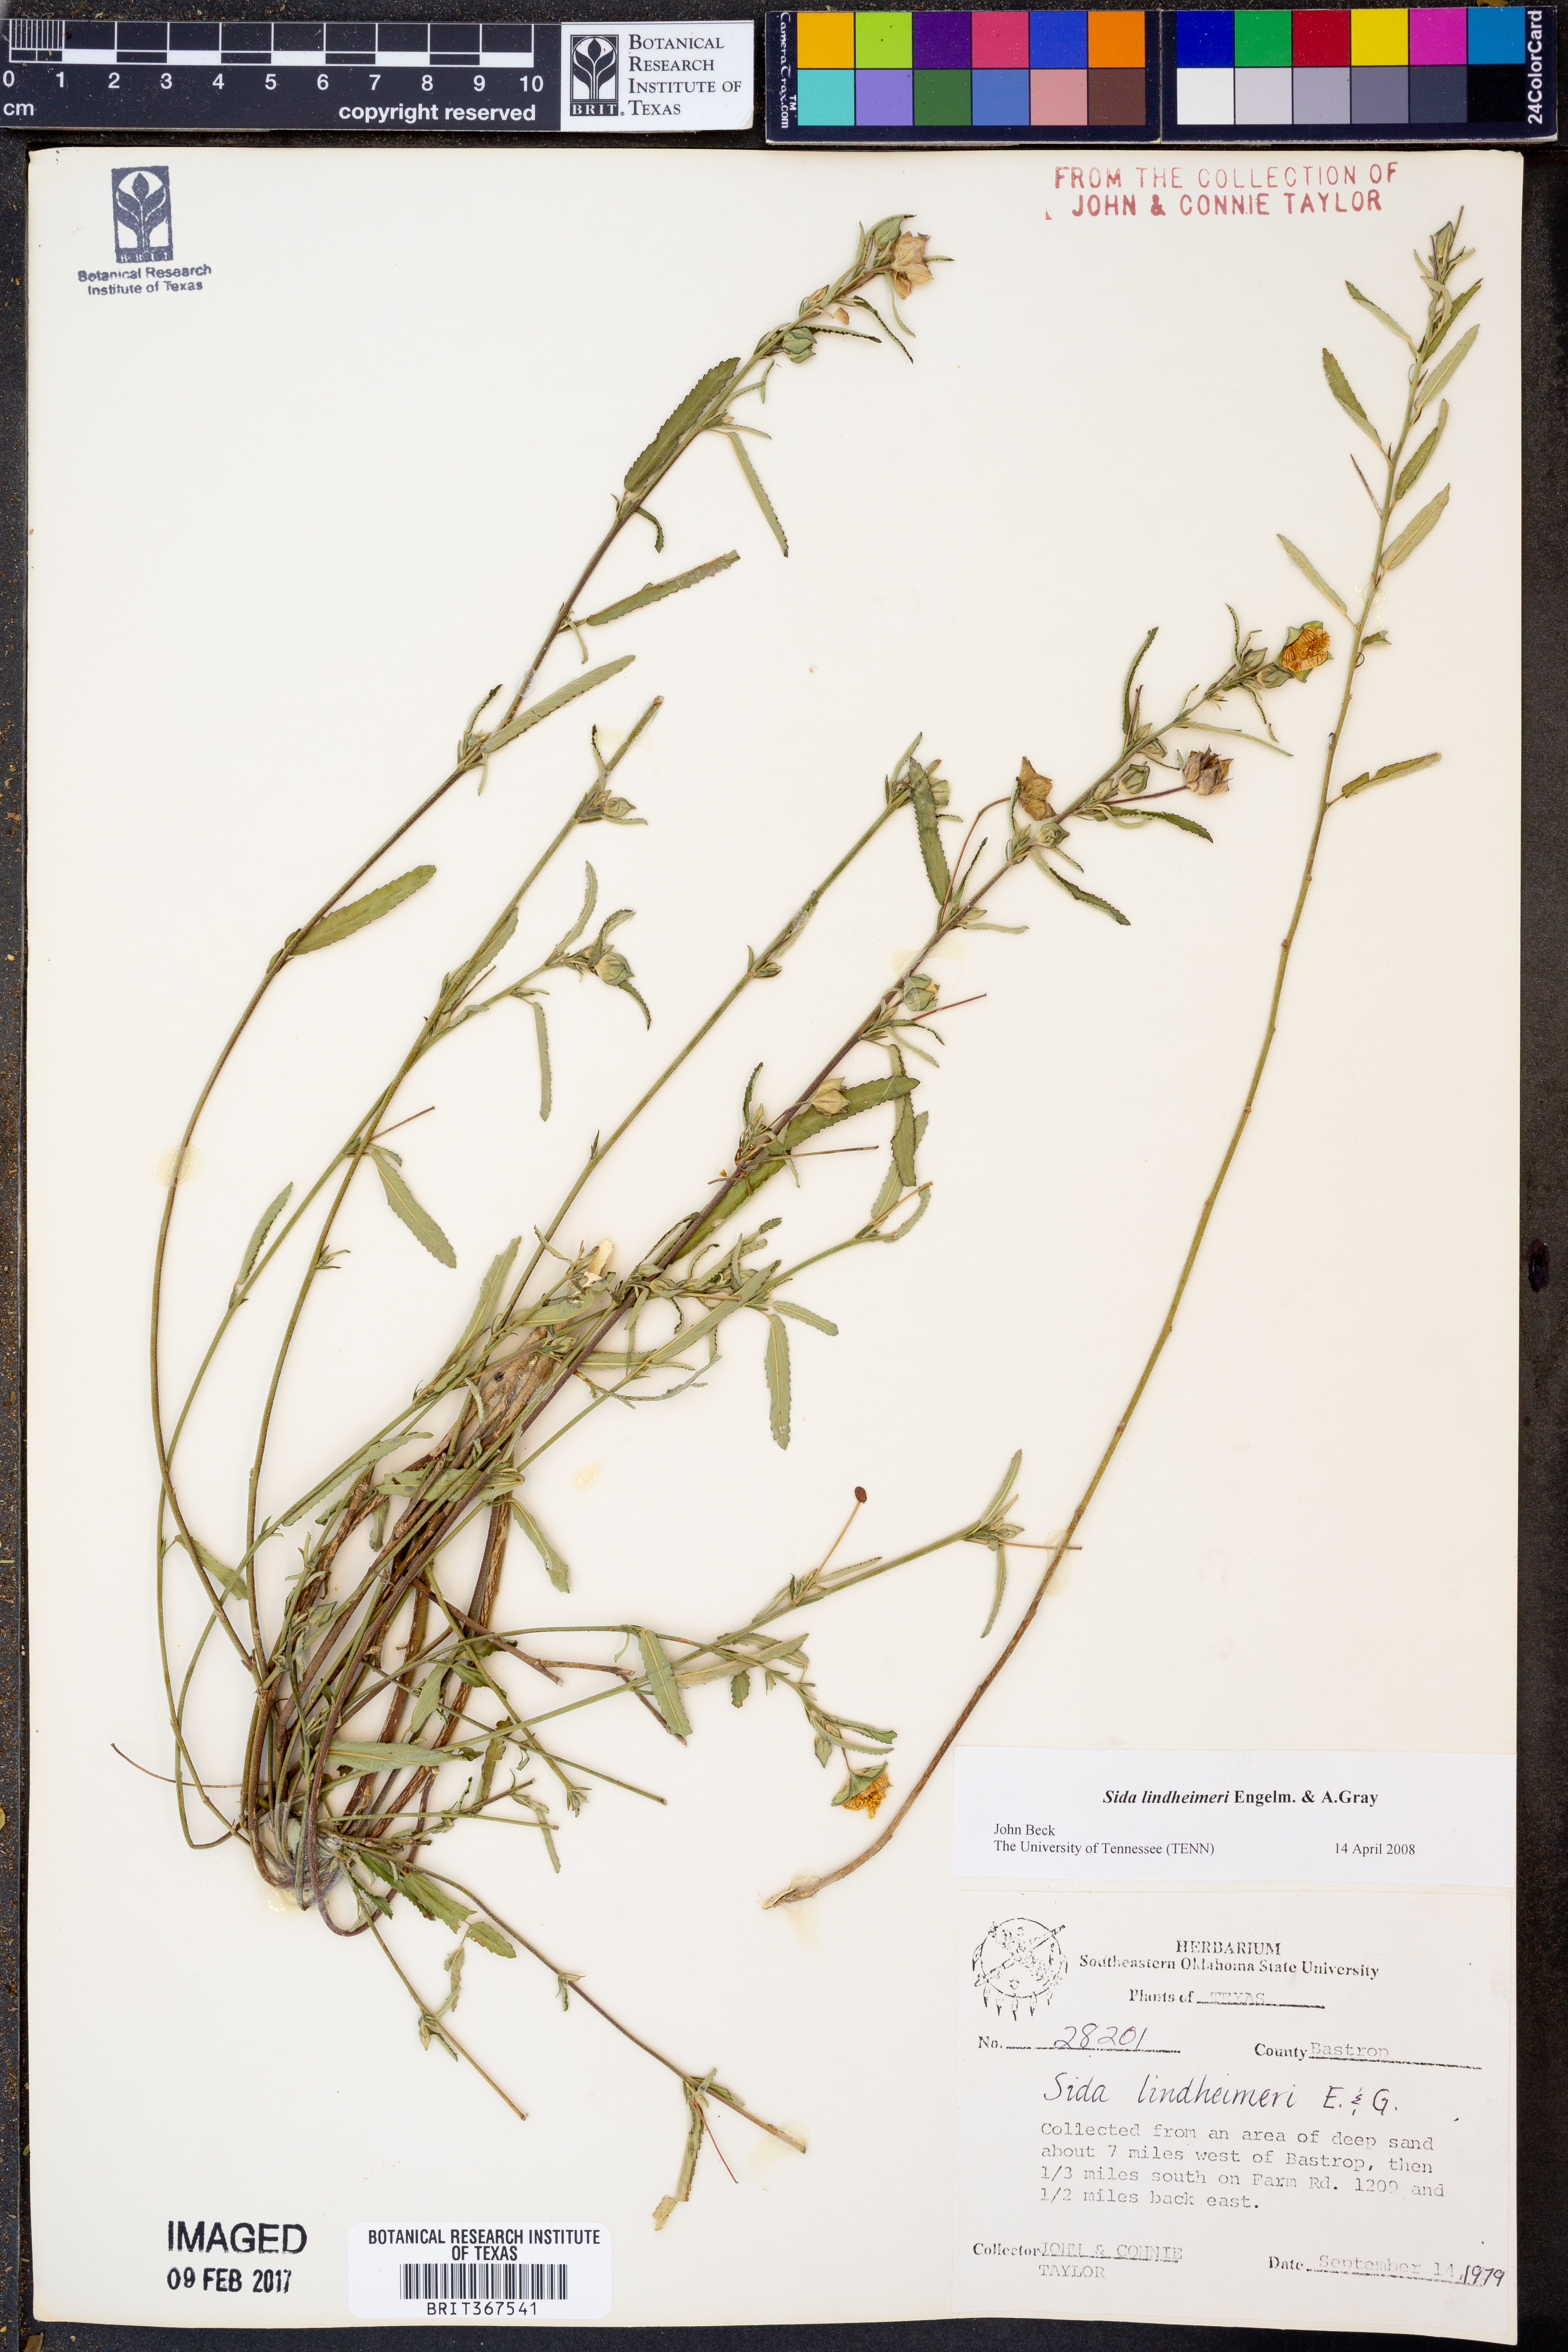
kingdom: Plantae
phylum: Tracheophyta
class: Magnoliopsida
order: Malvales
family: Malvaceae
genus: Sida
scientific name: Sida lindheimeri
